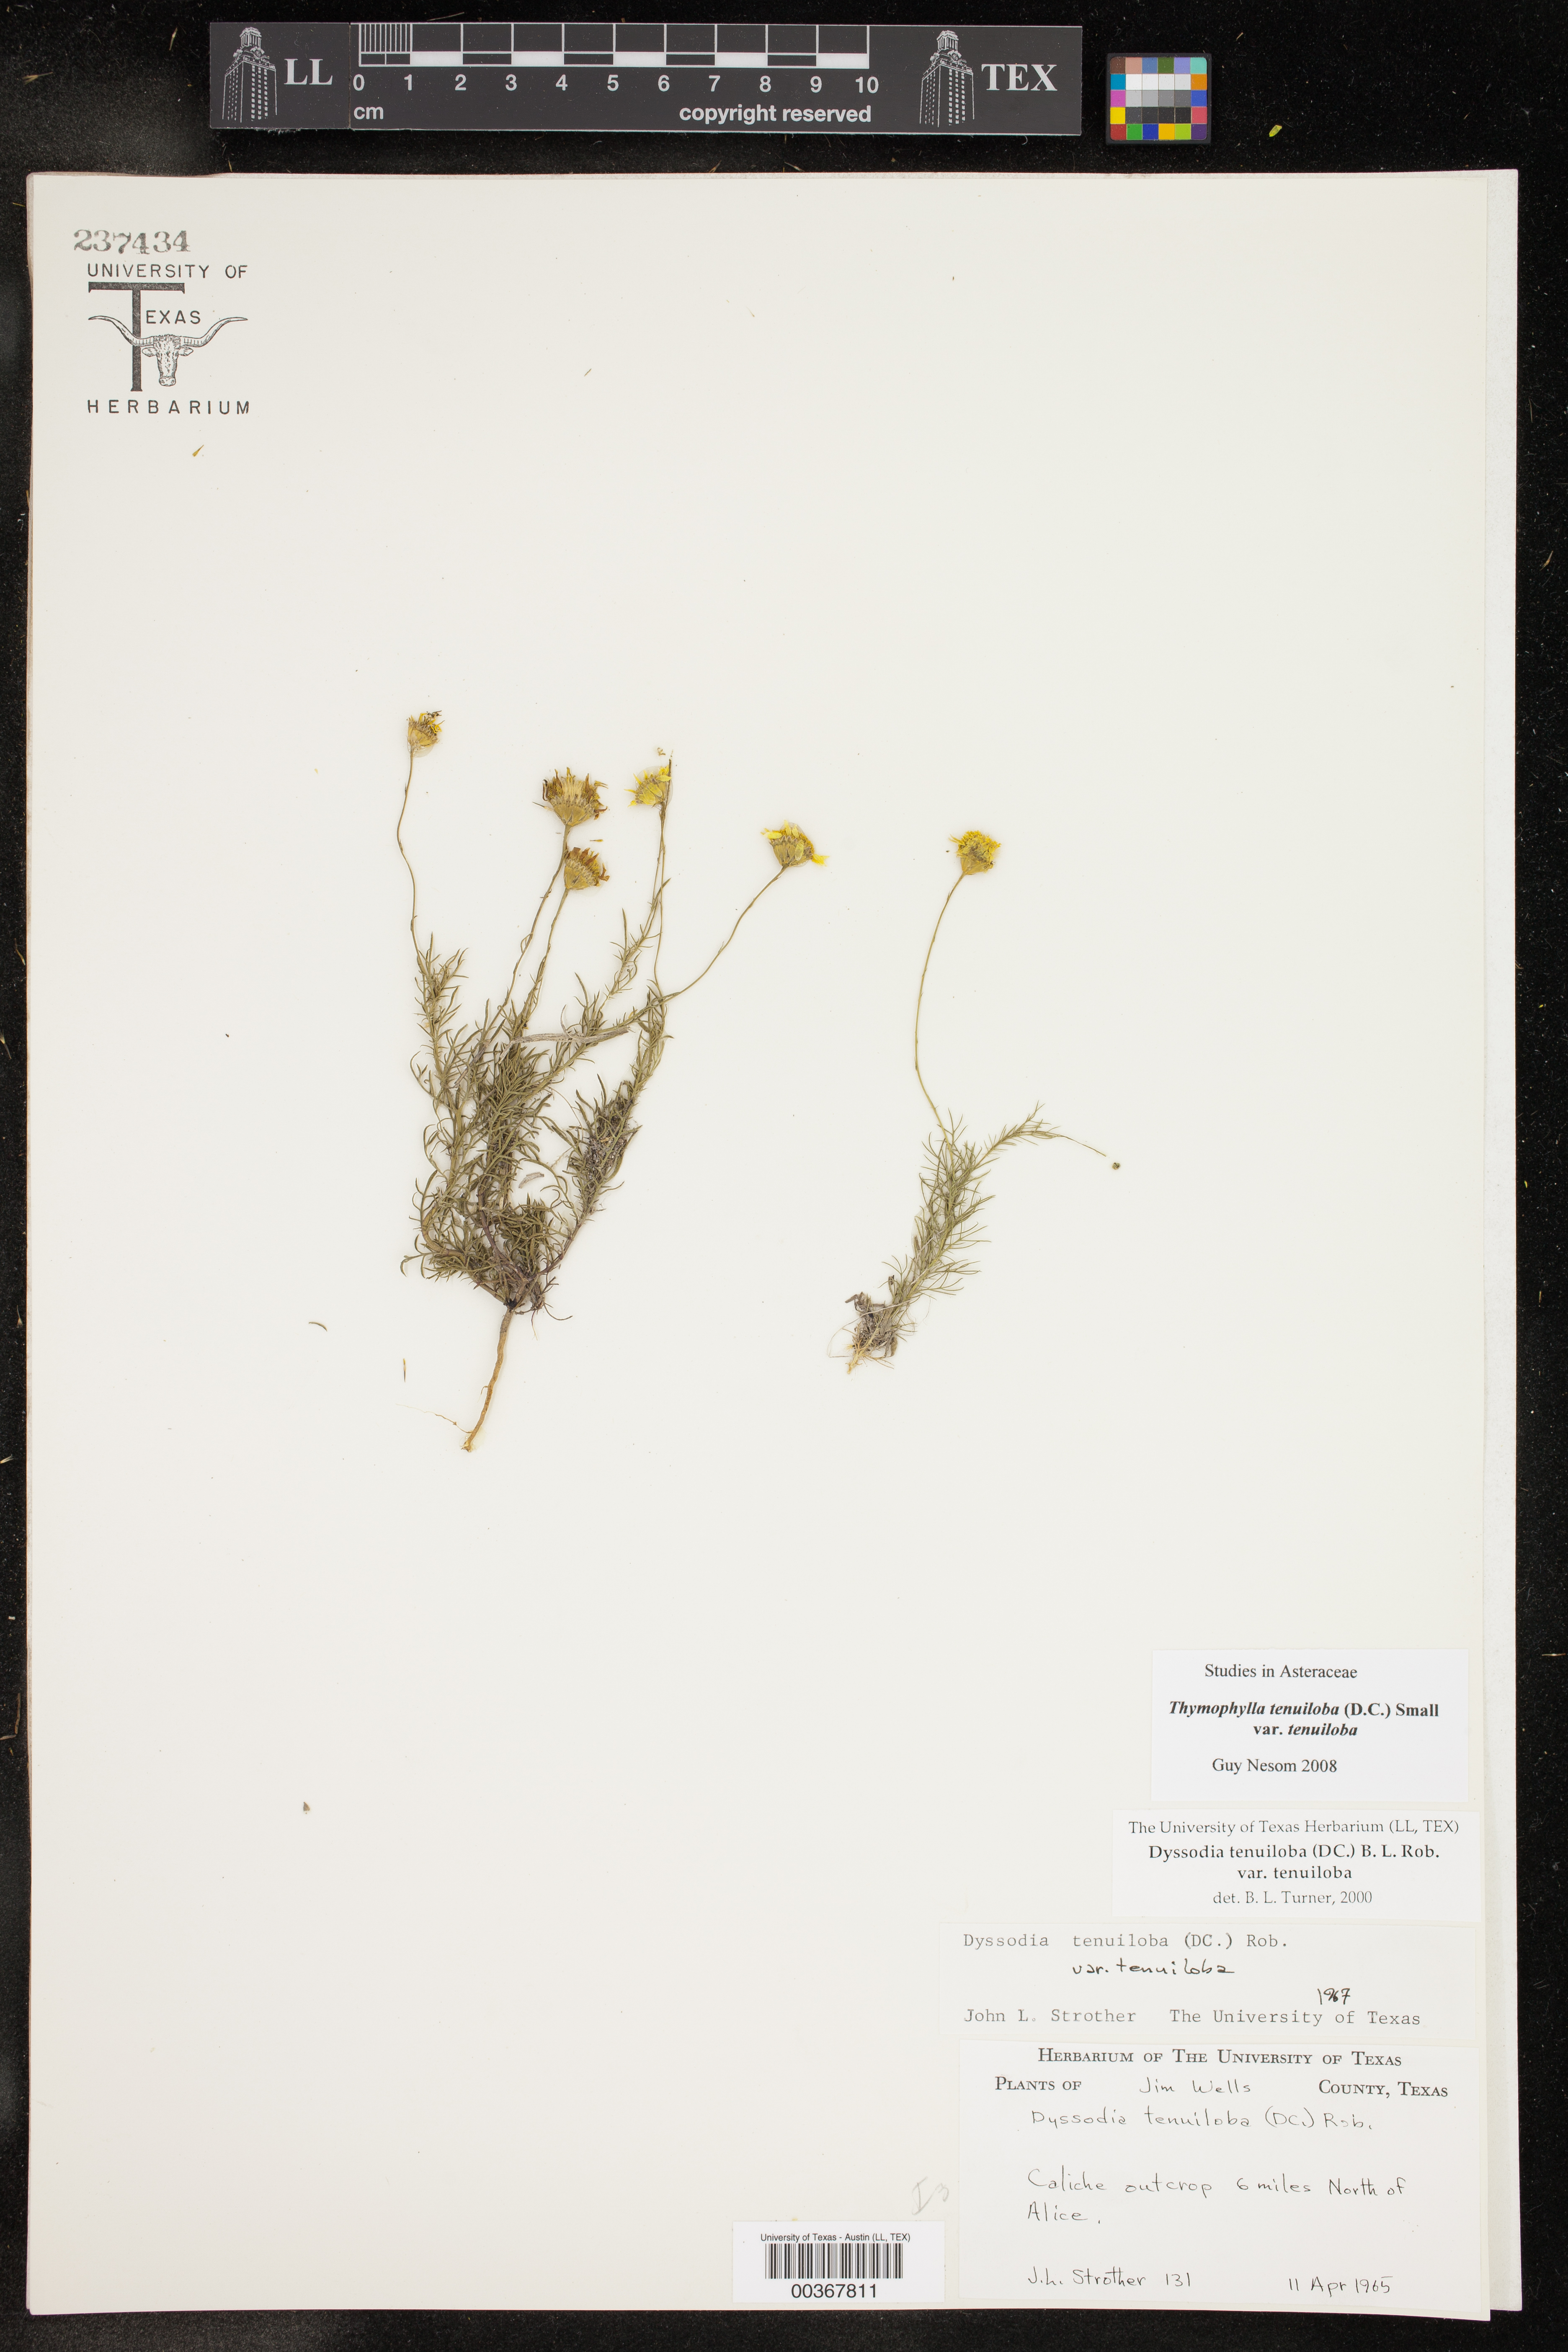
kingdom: Plantae
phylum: Tracheophyta
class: Magnoliopsida
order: Asterales
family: Asteraceae
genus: Thymophylla
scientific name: Thymophylla tenuiloba
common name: Dahlberg's daisy
